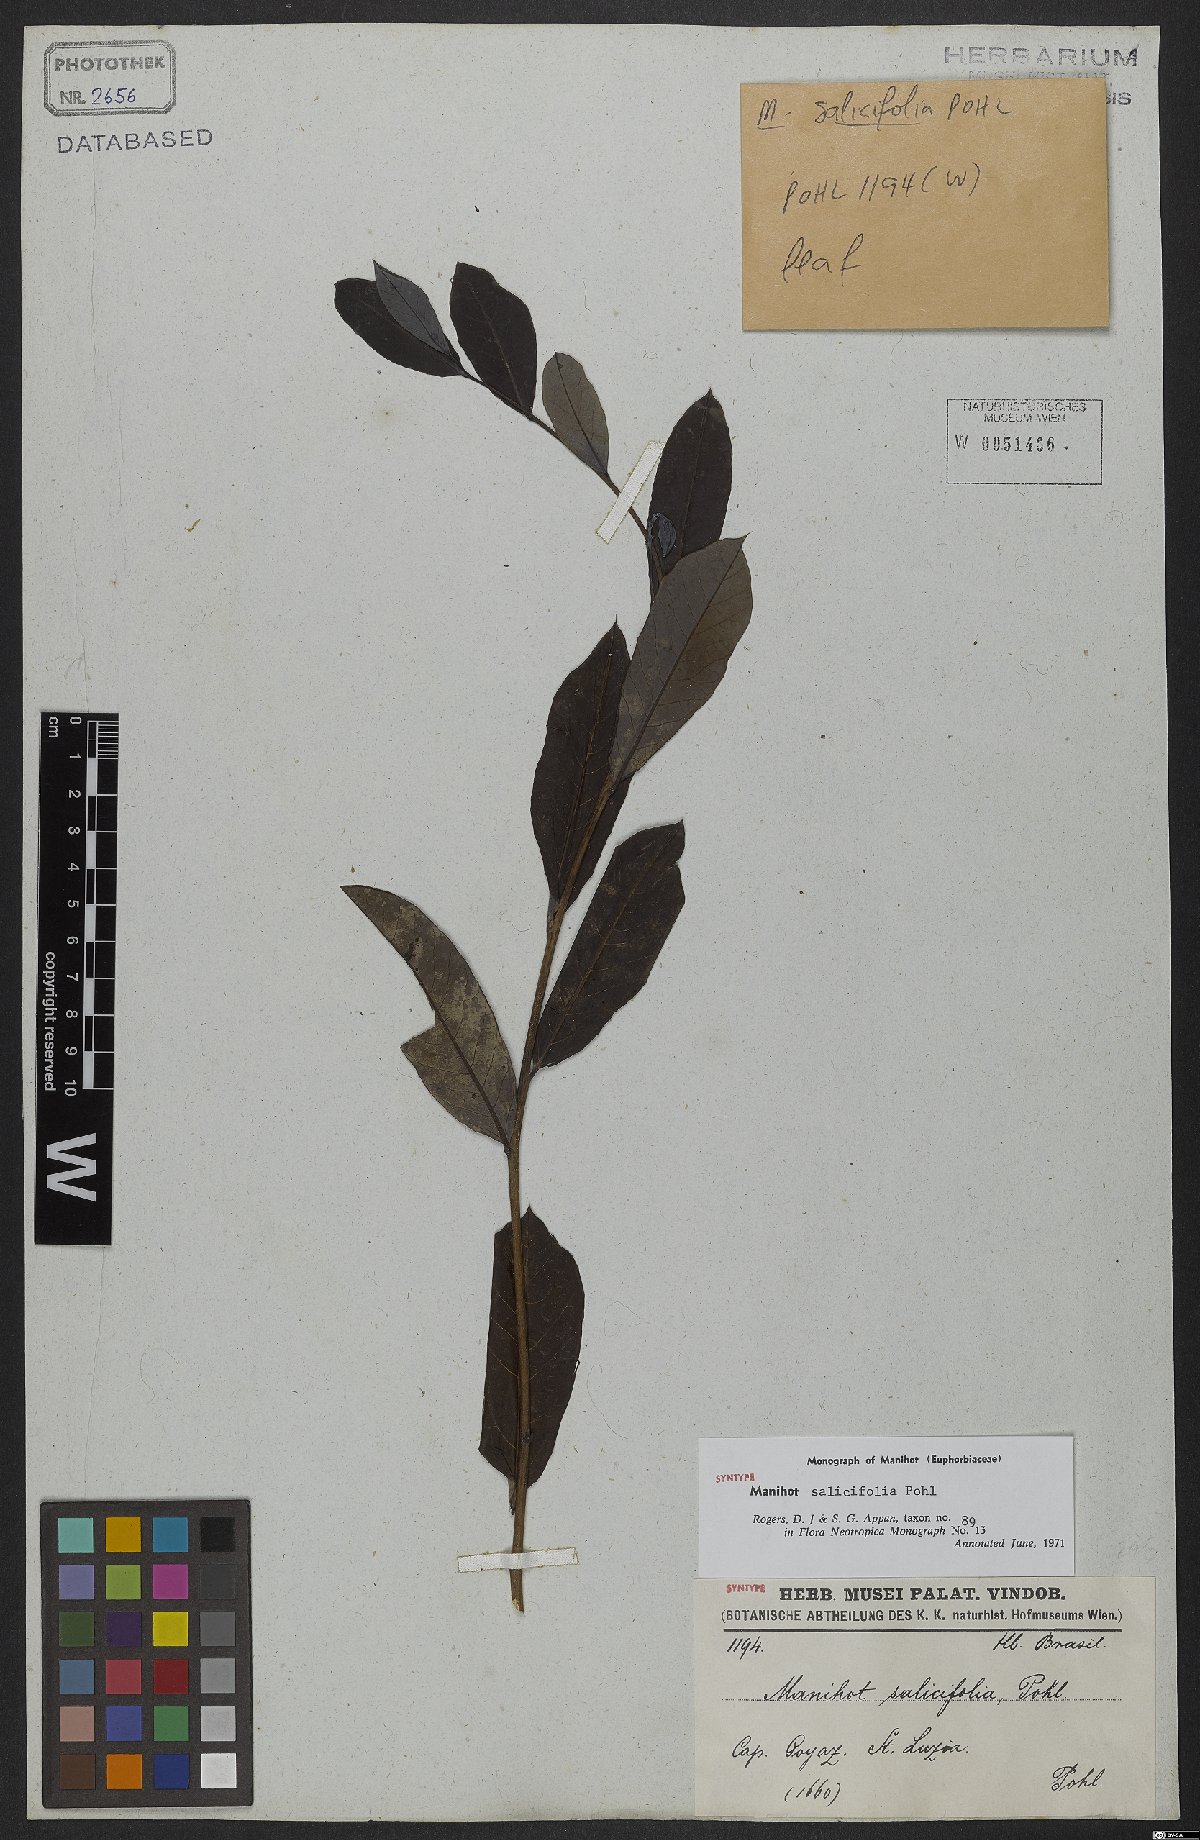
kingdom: Plantae
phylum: Tracheophyta
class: Magnoliopsida
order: Malpighiales
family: Euphorbiaceae
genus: Manihot
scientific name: Manihot salicifolia
